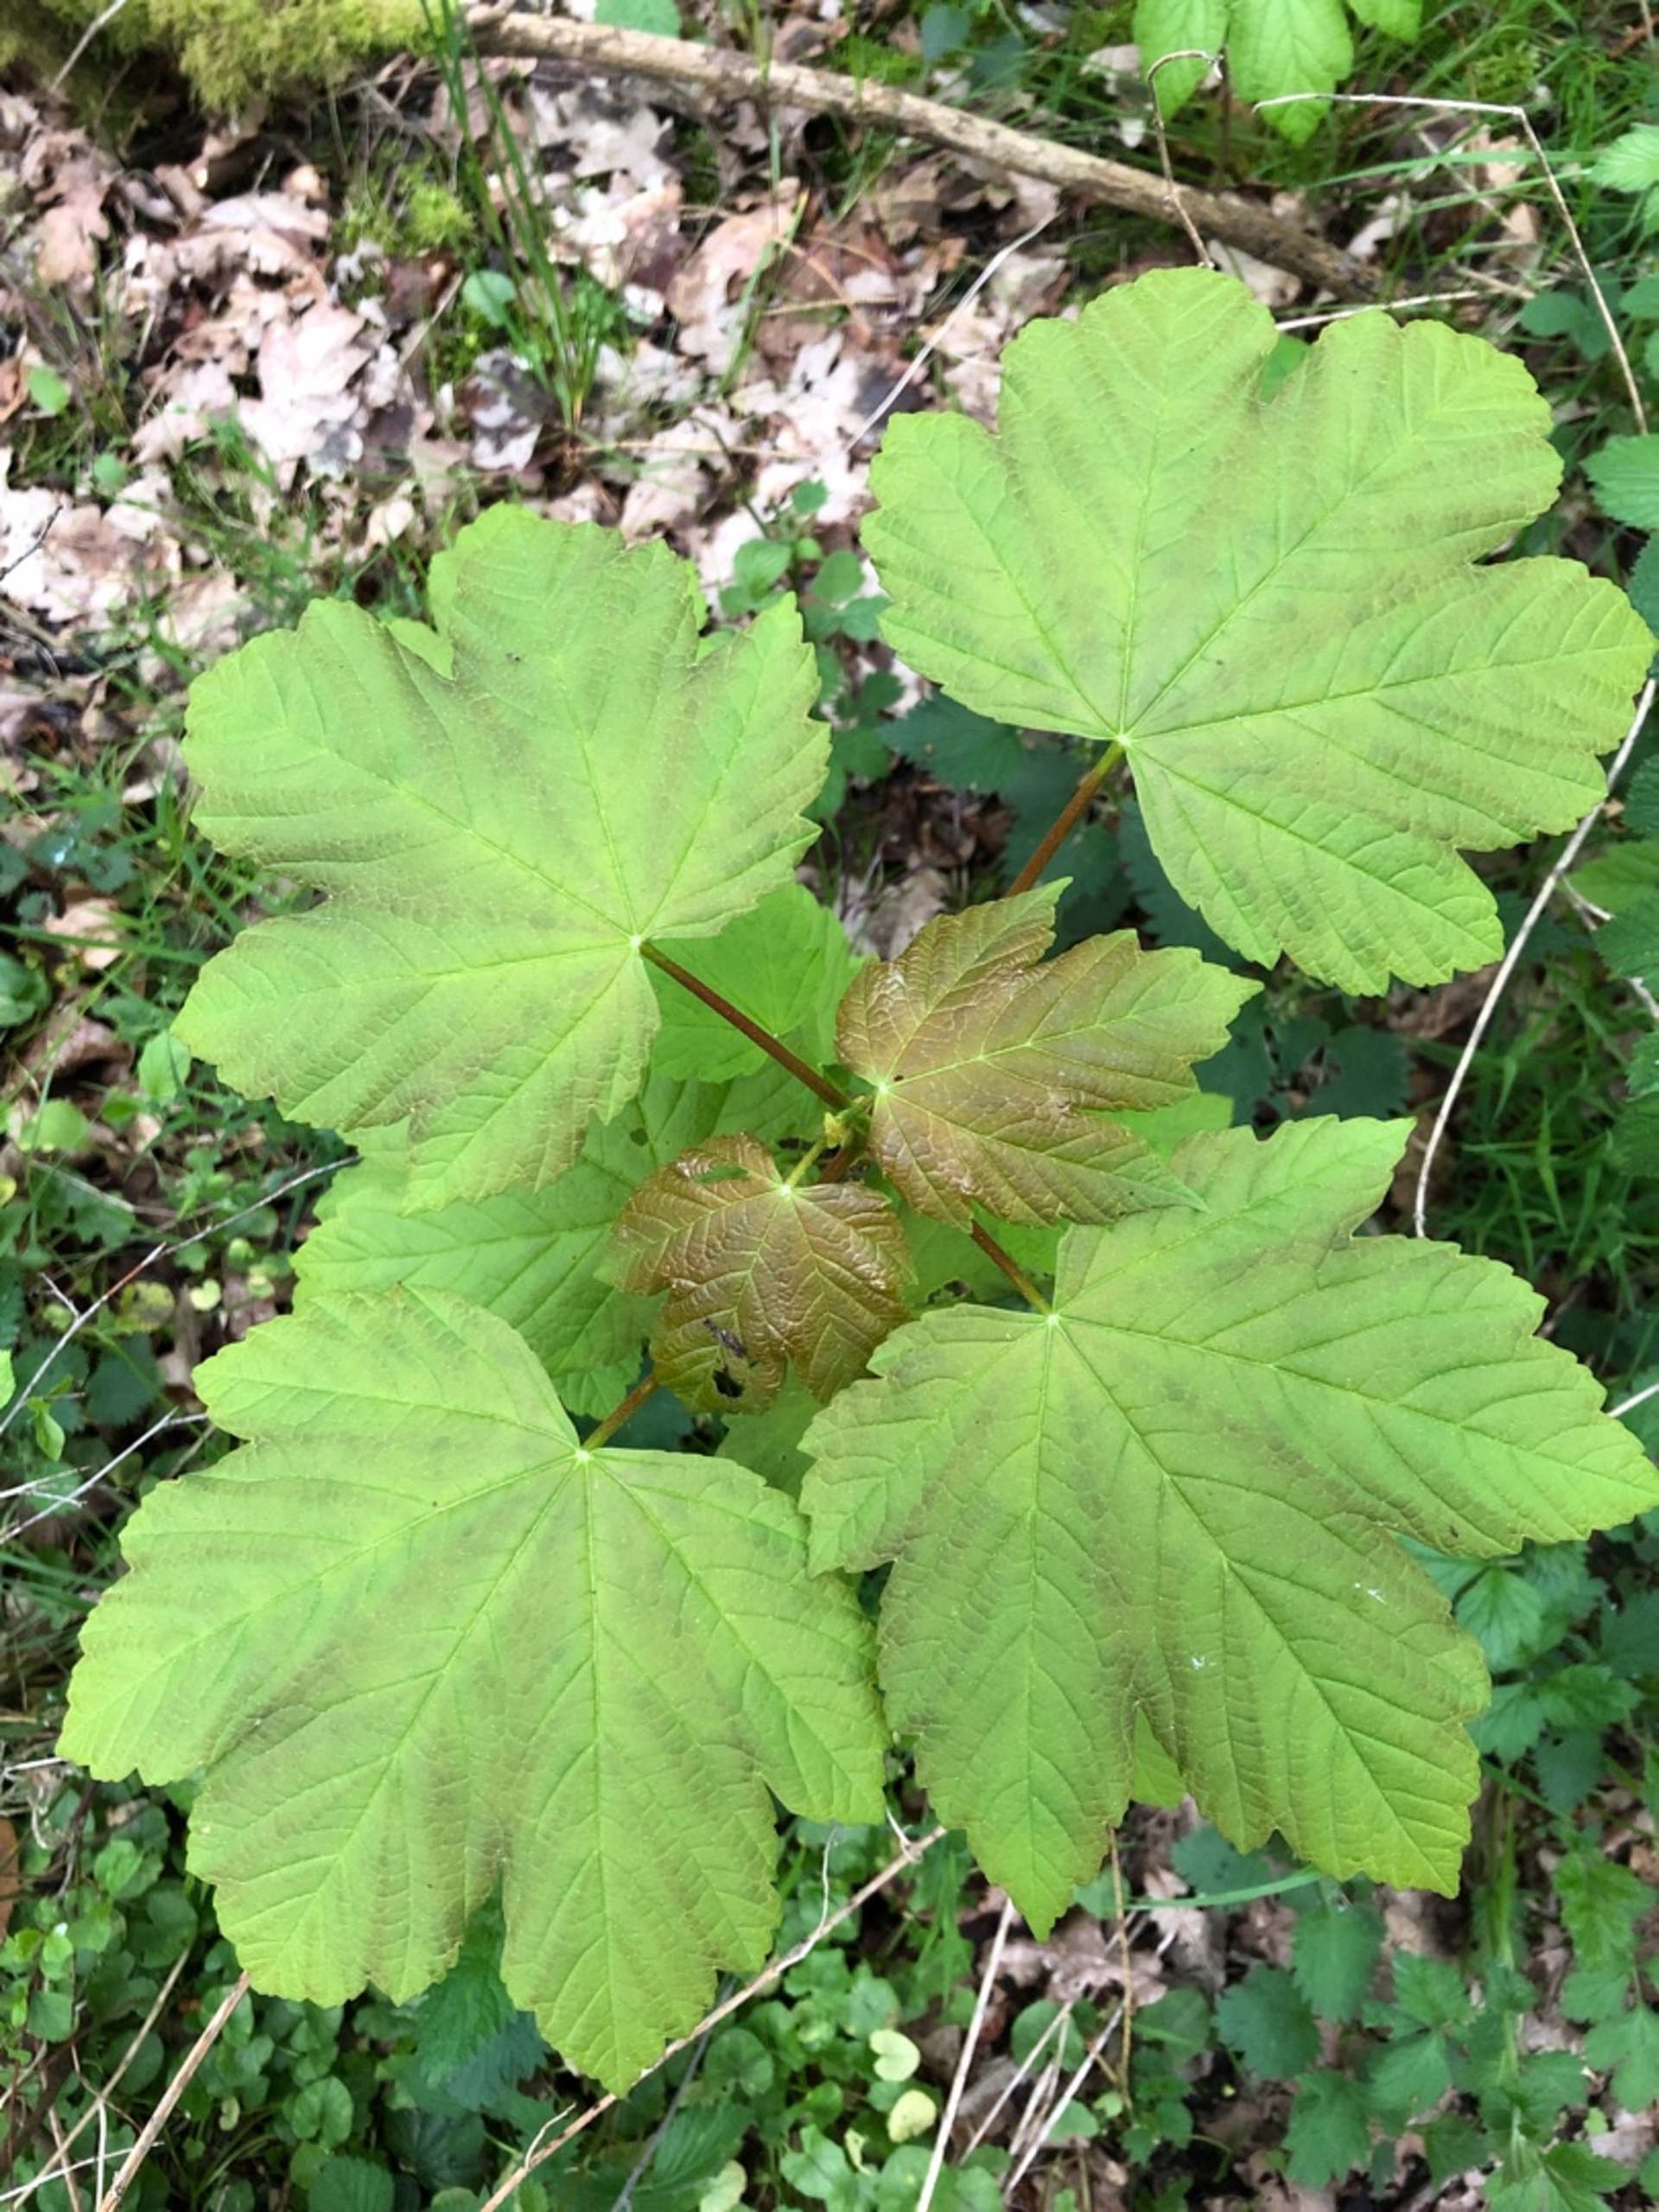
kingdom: Plantae
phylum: Tracheophyta
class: Magnoliopsida
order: Sapindales
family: Sapindaceae
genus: Acer
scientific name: Acer pseudoplatanus
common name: Ahorn
